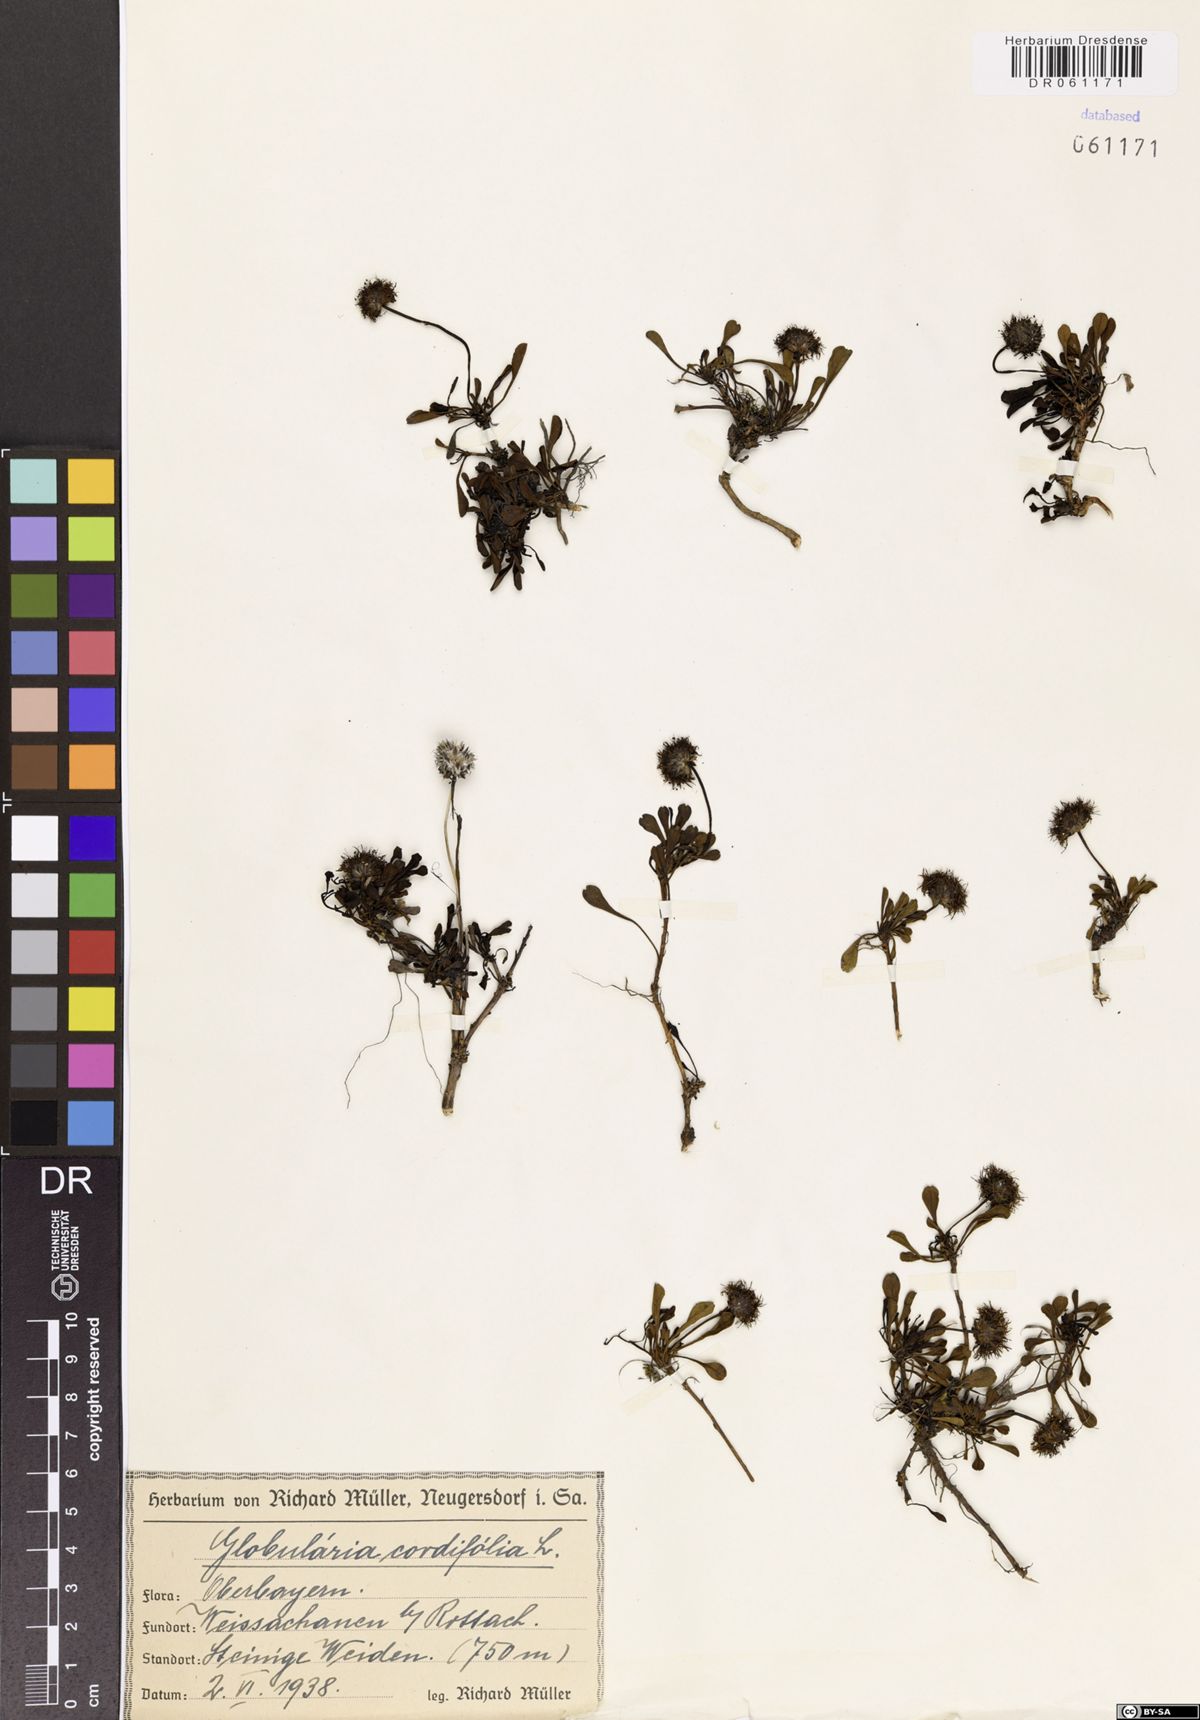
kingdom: Plantae
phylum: Tracheophyta
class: Magnoliopsida
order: Lamiales
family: Plantaginaceae
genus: Globularia
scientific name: Globularia cordifolia
